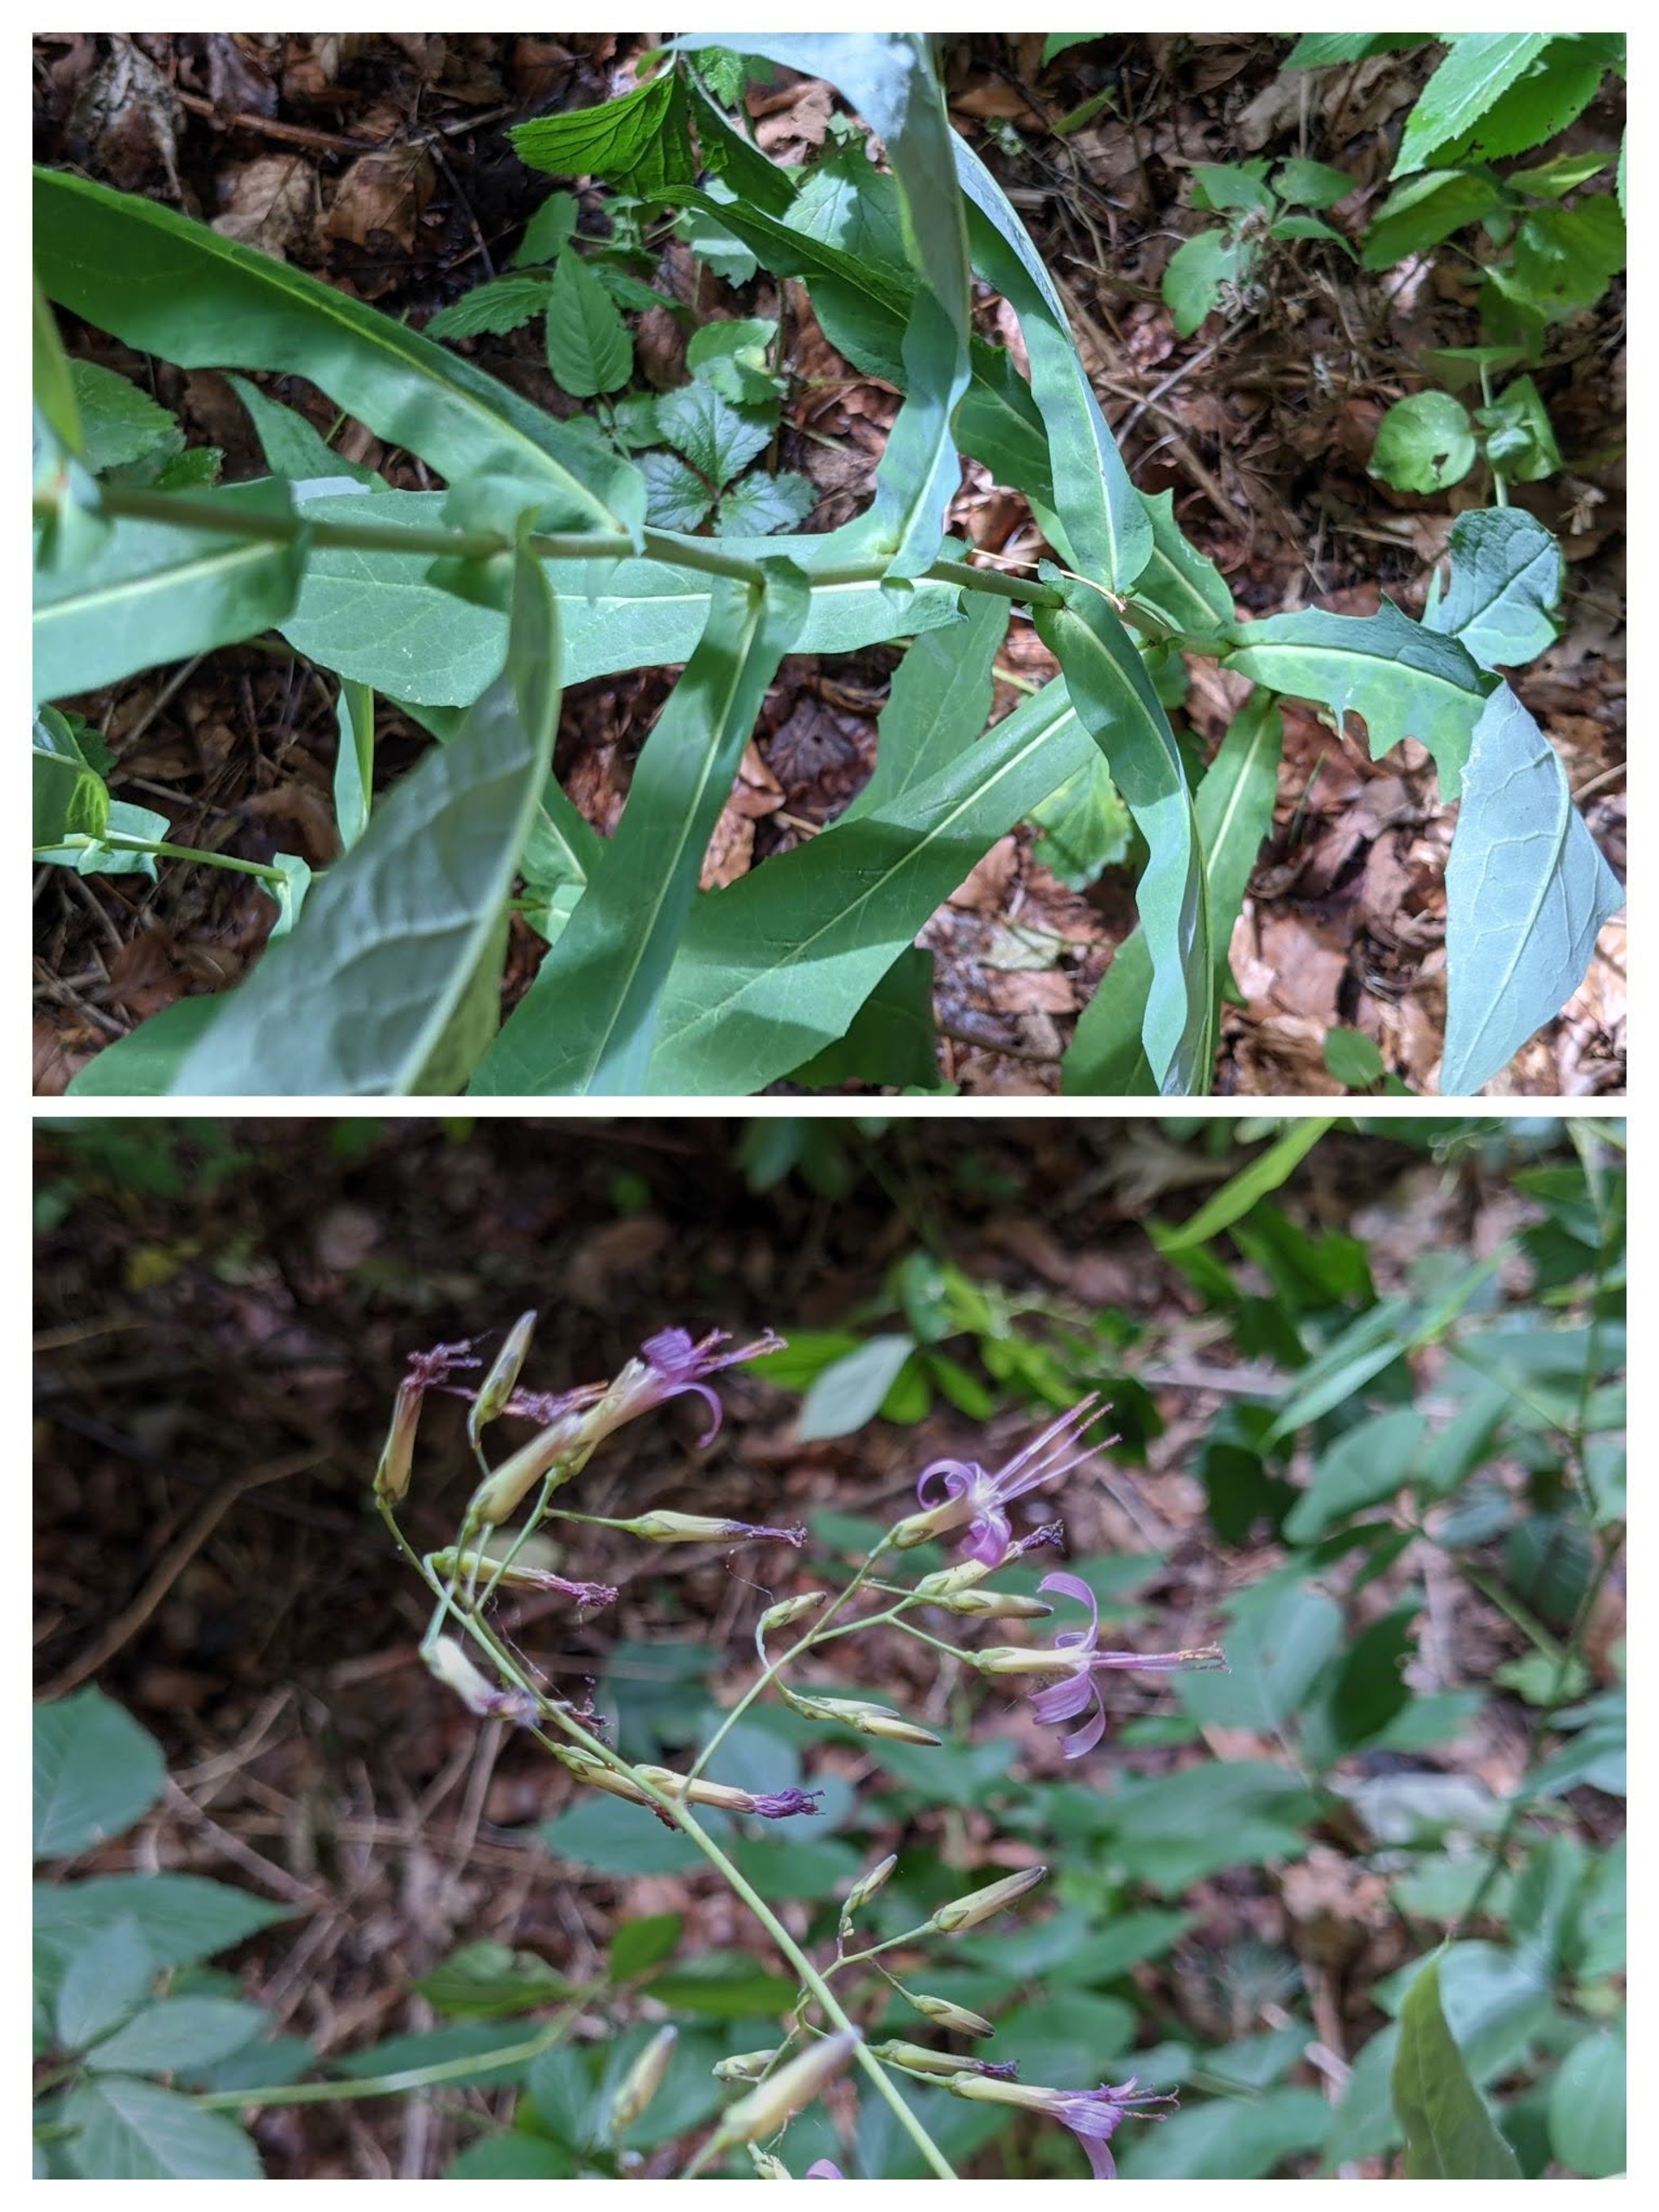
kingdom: Plantae
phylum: Tracheophyta
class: Magnoliopsida
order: Asterales
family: Asteraceae
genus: Prenanthes
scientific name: Prenanthes purpurea
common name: Hængekurv
